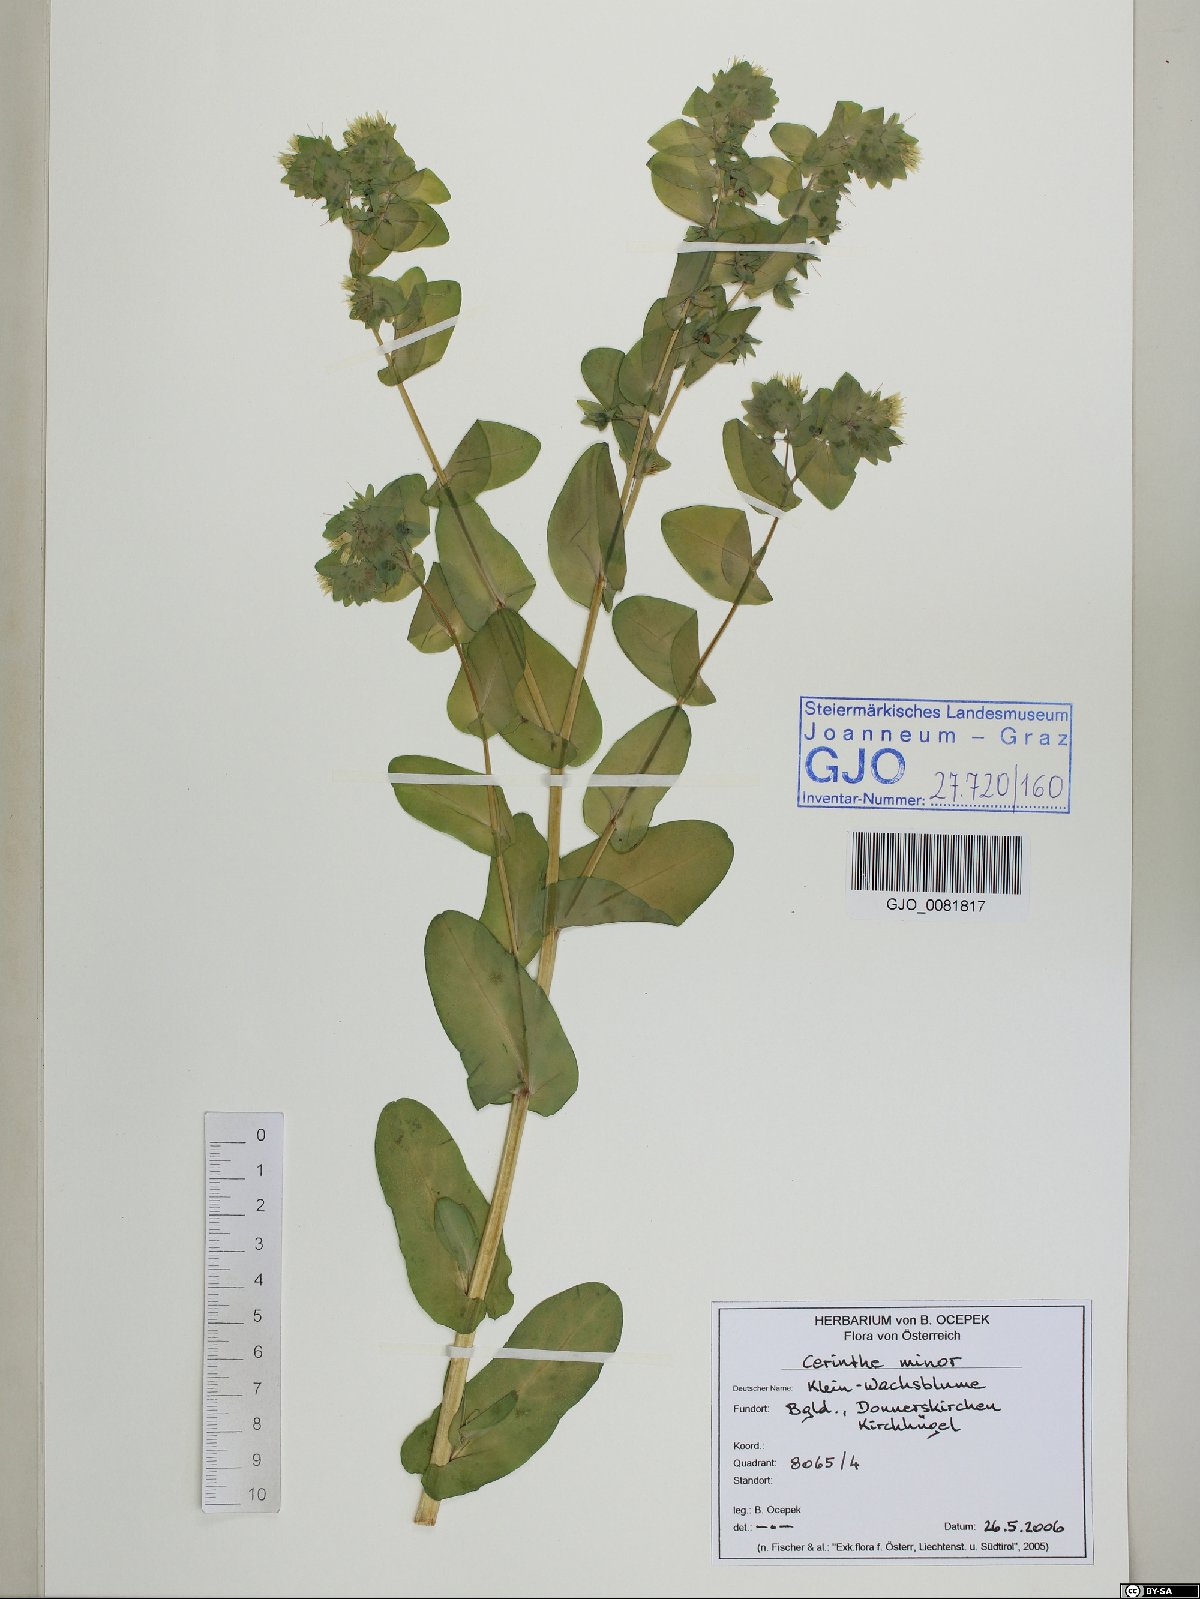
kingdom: Plantae
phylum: Tracheophyta
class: Magnoliopsida
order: Boraginales
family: Boraginaceae
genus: Cerinthe
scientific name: Cerinthe minor
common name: Lesser honeywort
